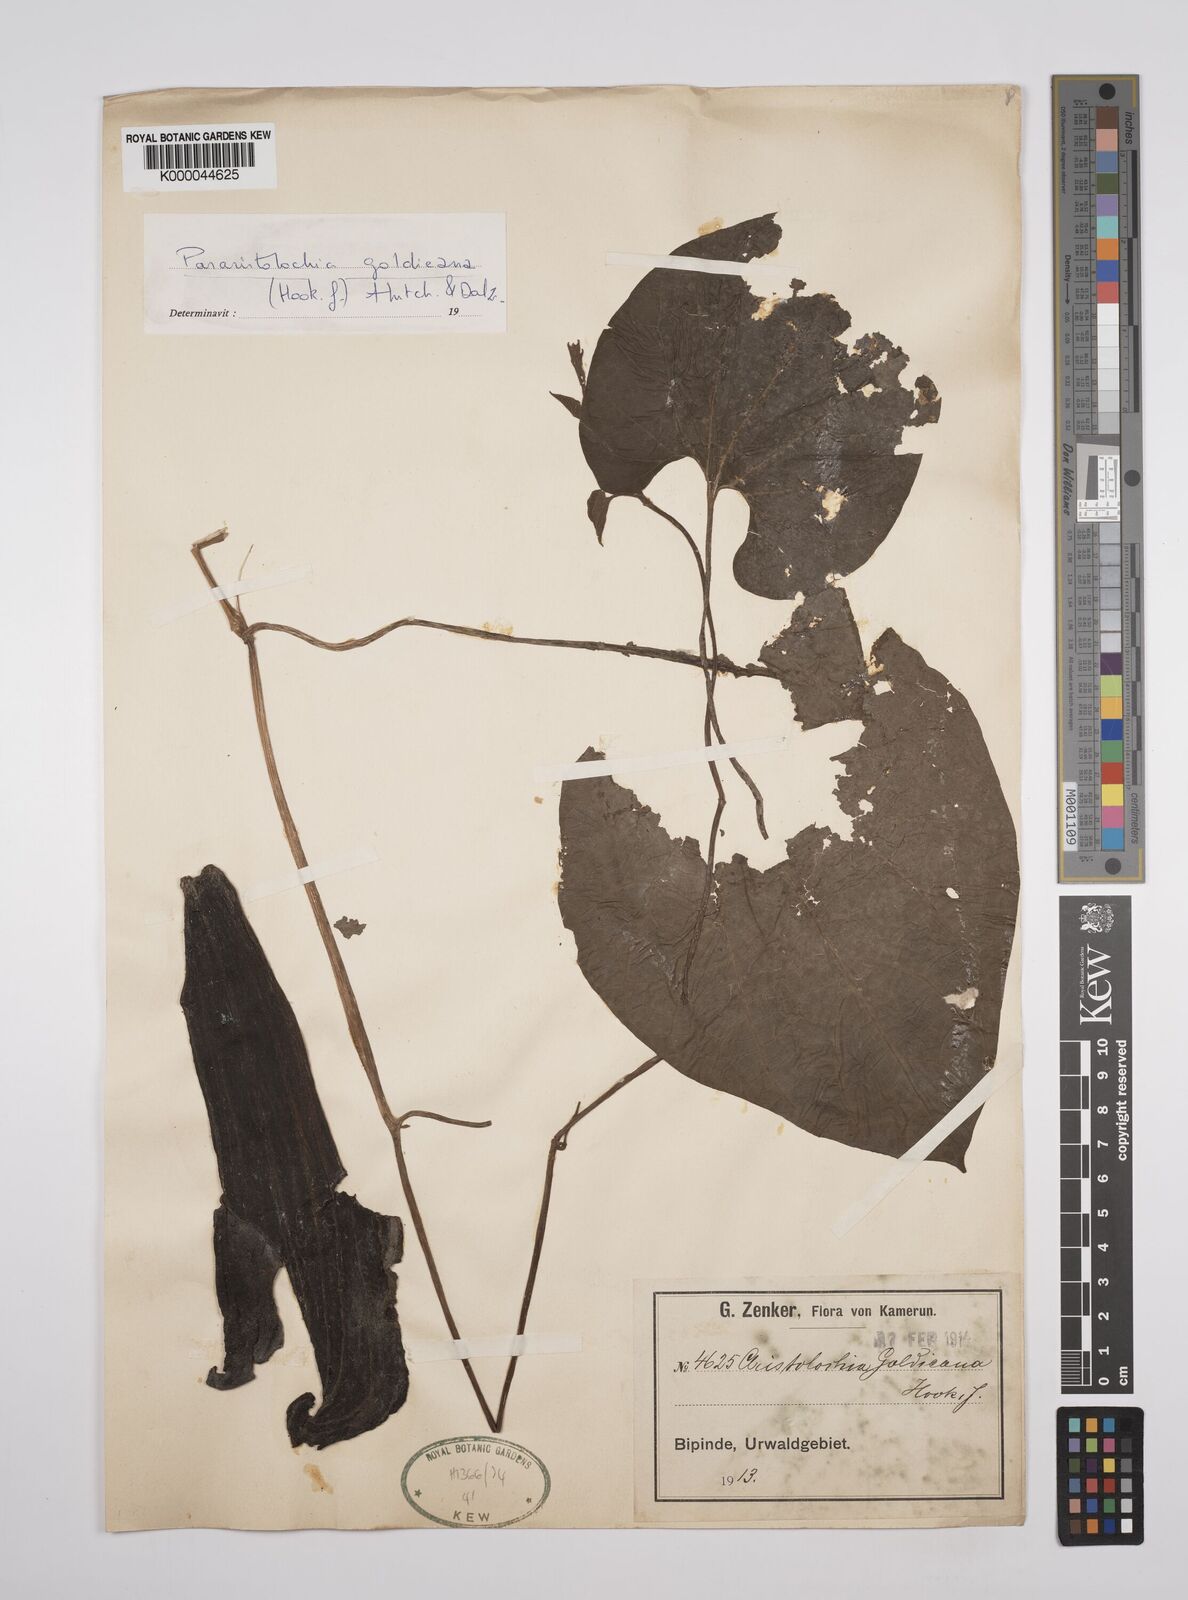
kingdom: Plantae
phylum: Tracheophyta
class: Magnoliopsida
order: Piperales
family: Aristolochiaceae
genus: Aristolochia
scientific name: Aristolochia goldieana
